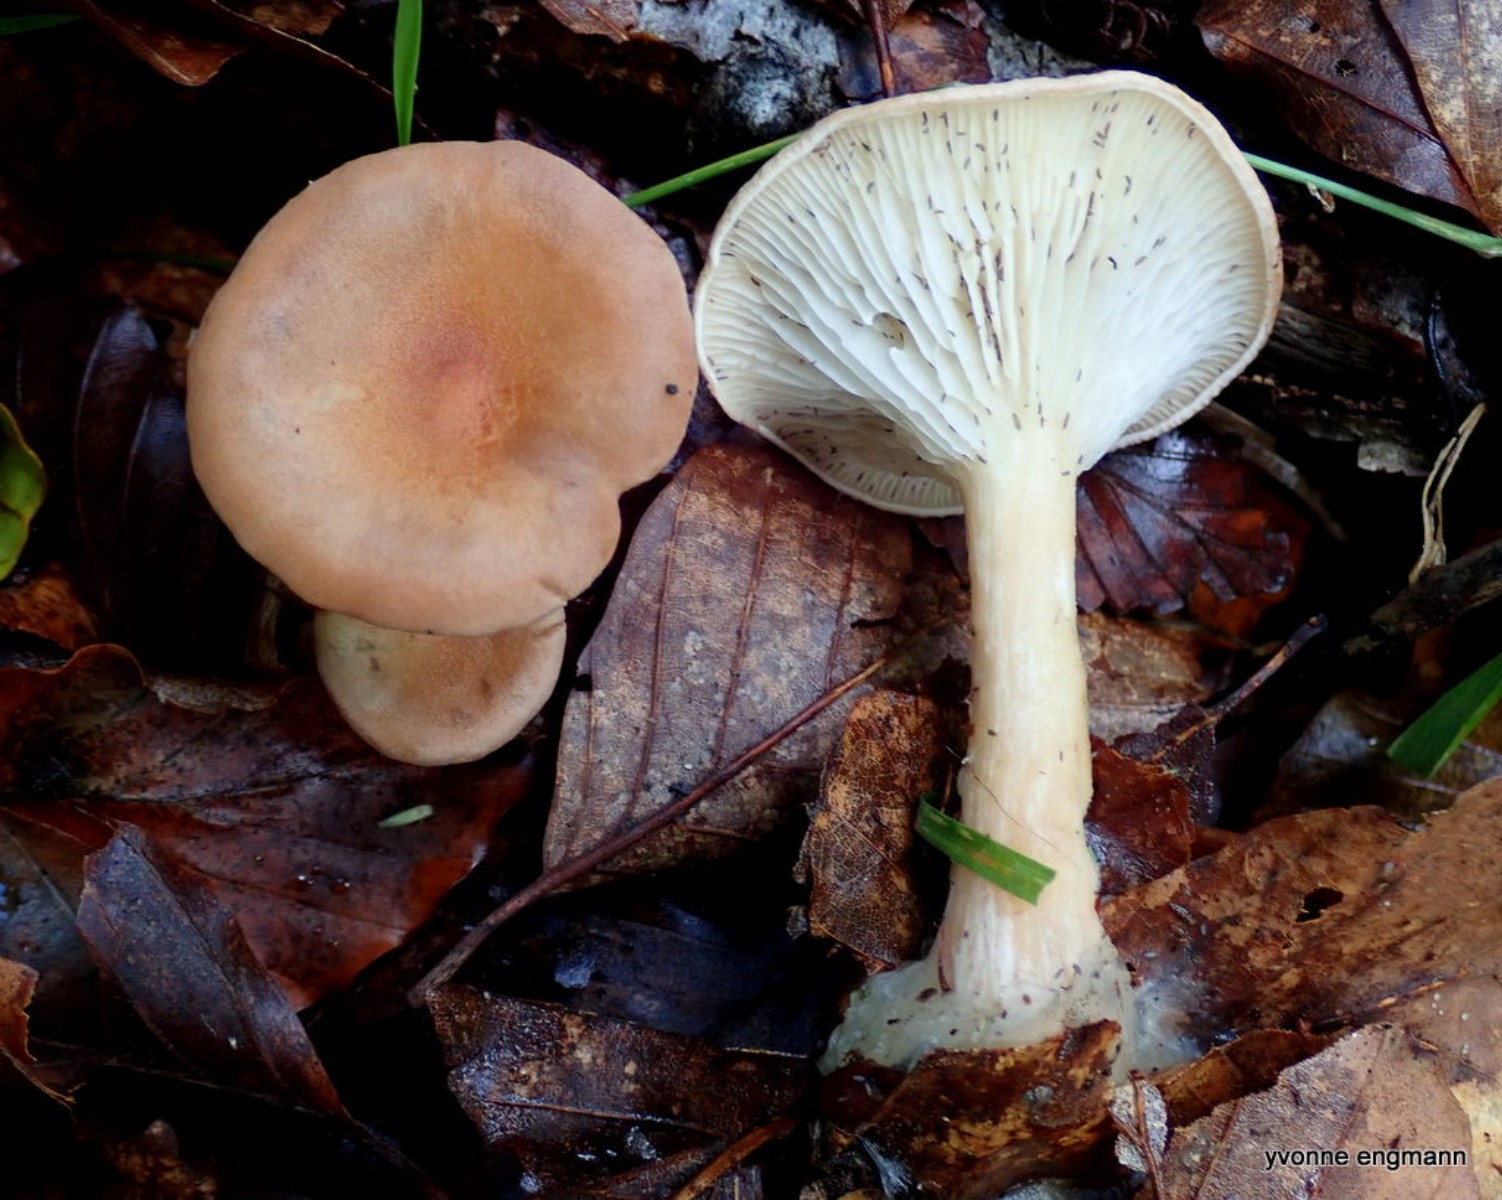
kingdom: Fungi
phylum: Basidiomycota
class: Agaricomycetes
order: Agaricales
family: Tricholomataceae
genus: Infundibulicybe
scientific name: Infundibulicybe gibba
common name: almindelig tragthat
